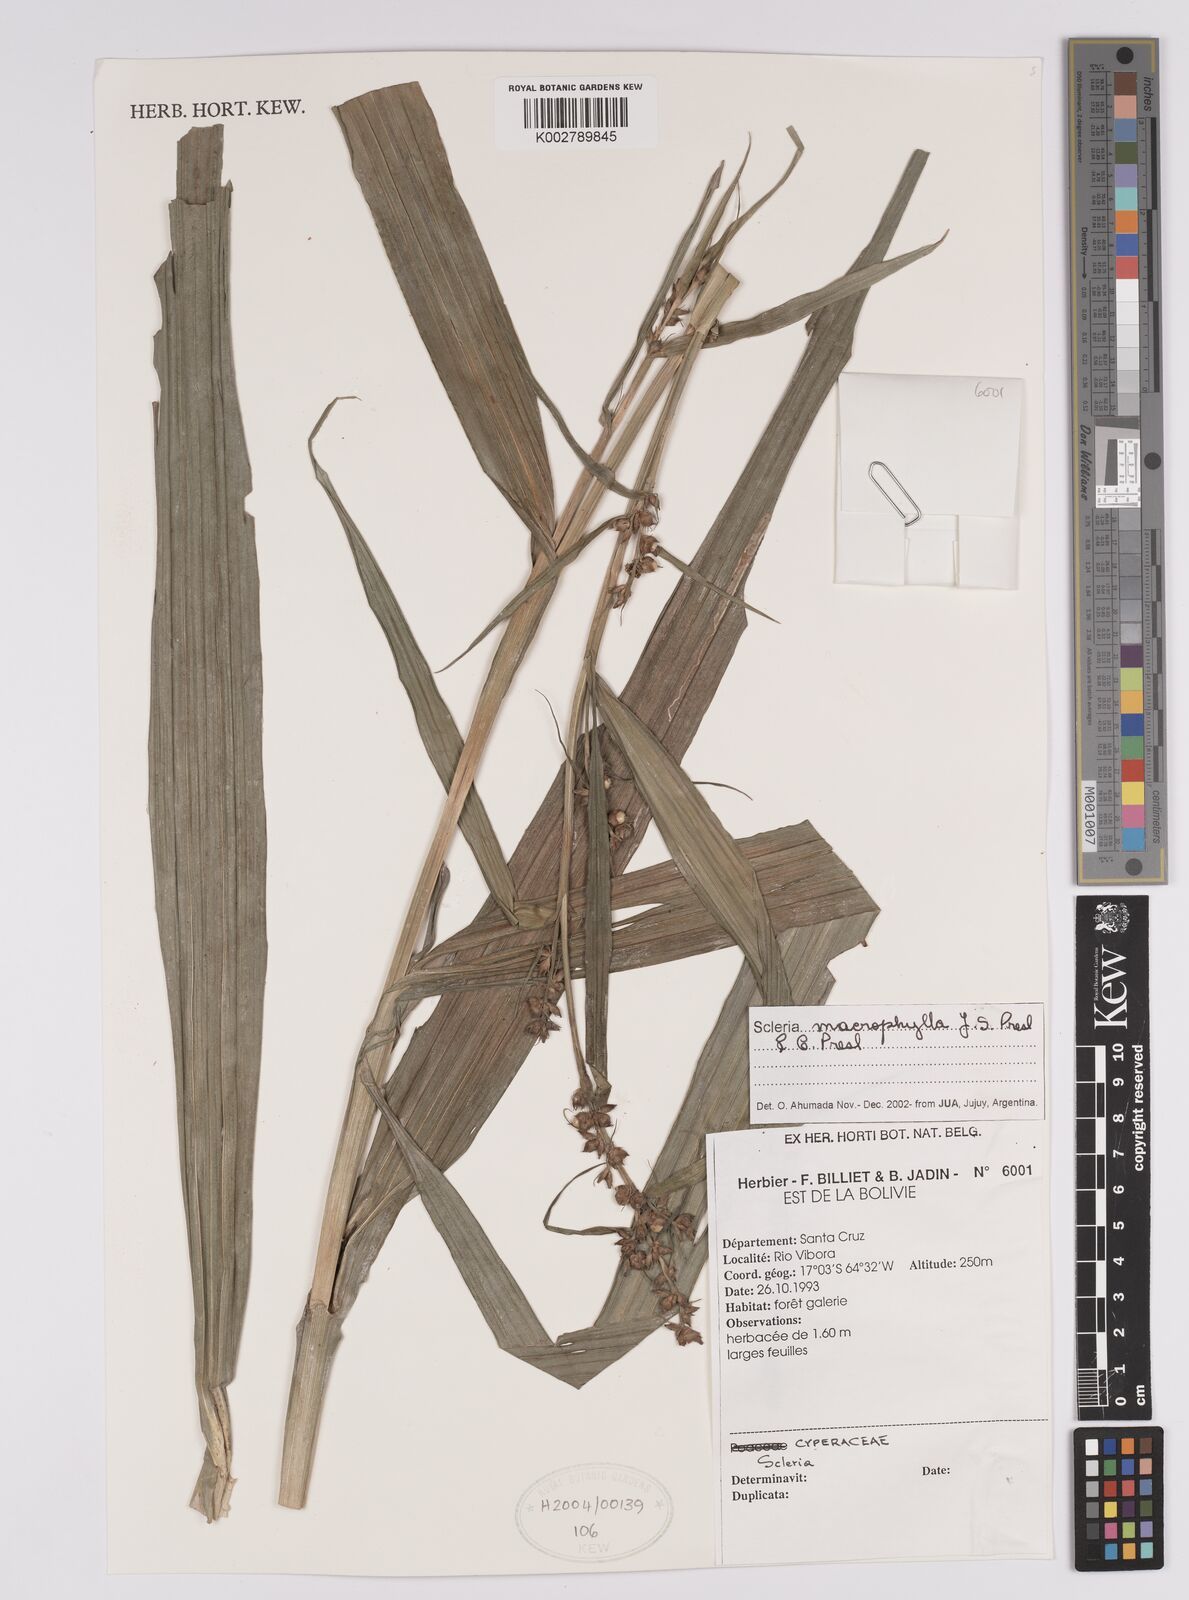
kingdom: Plantae
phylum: Tracheophyta
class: Liliopsida
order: Poales
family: Cyperaceae
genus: Scleria
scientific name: Scleria ciliaris
